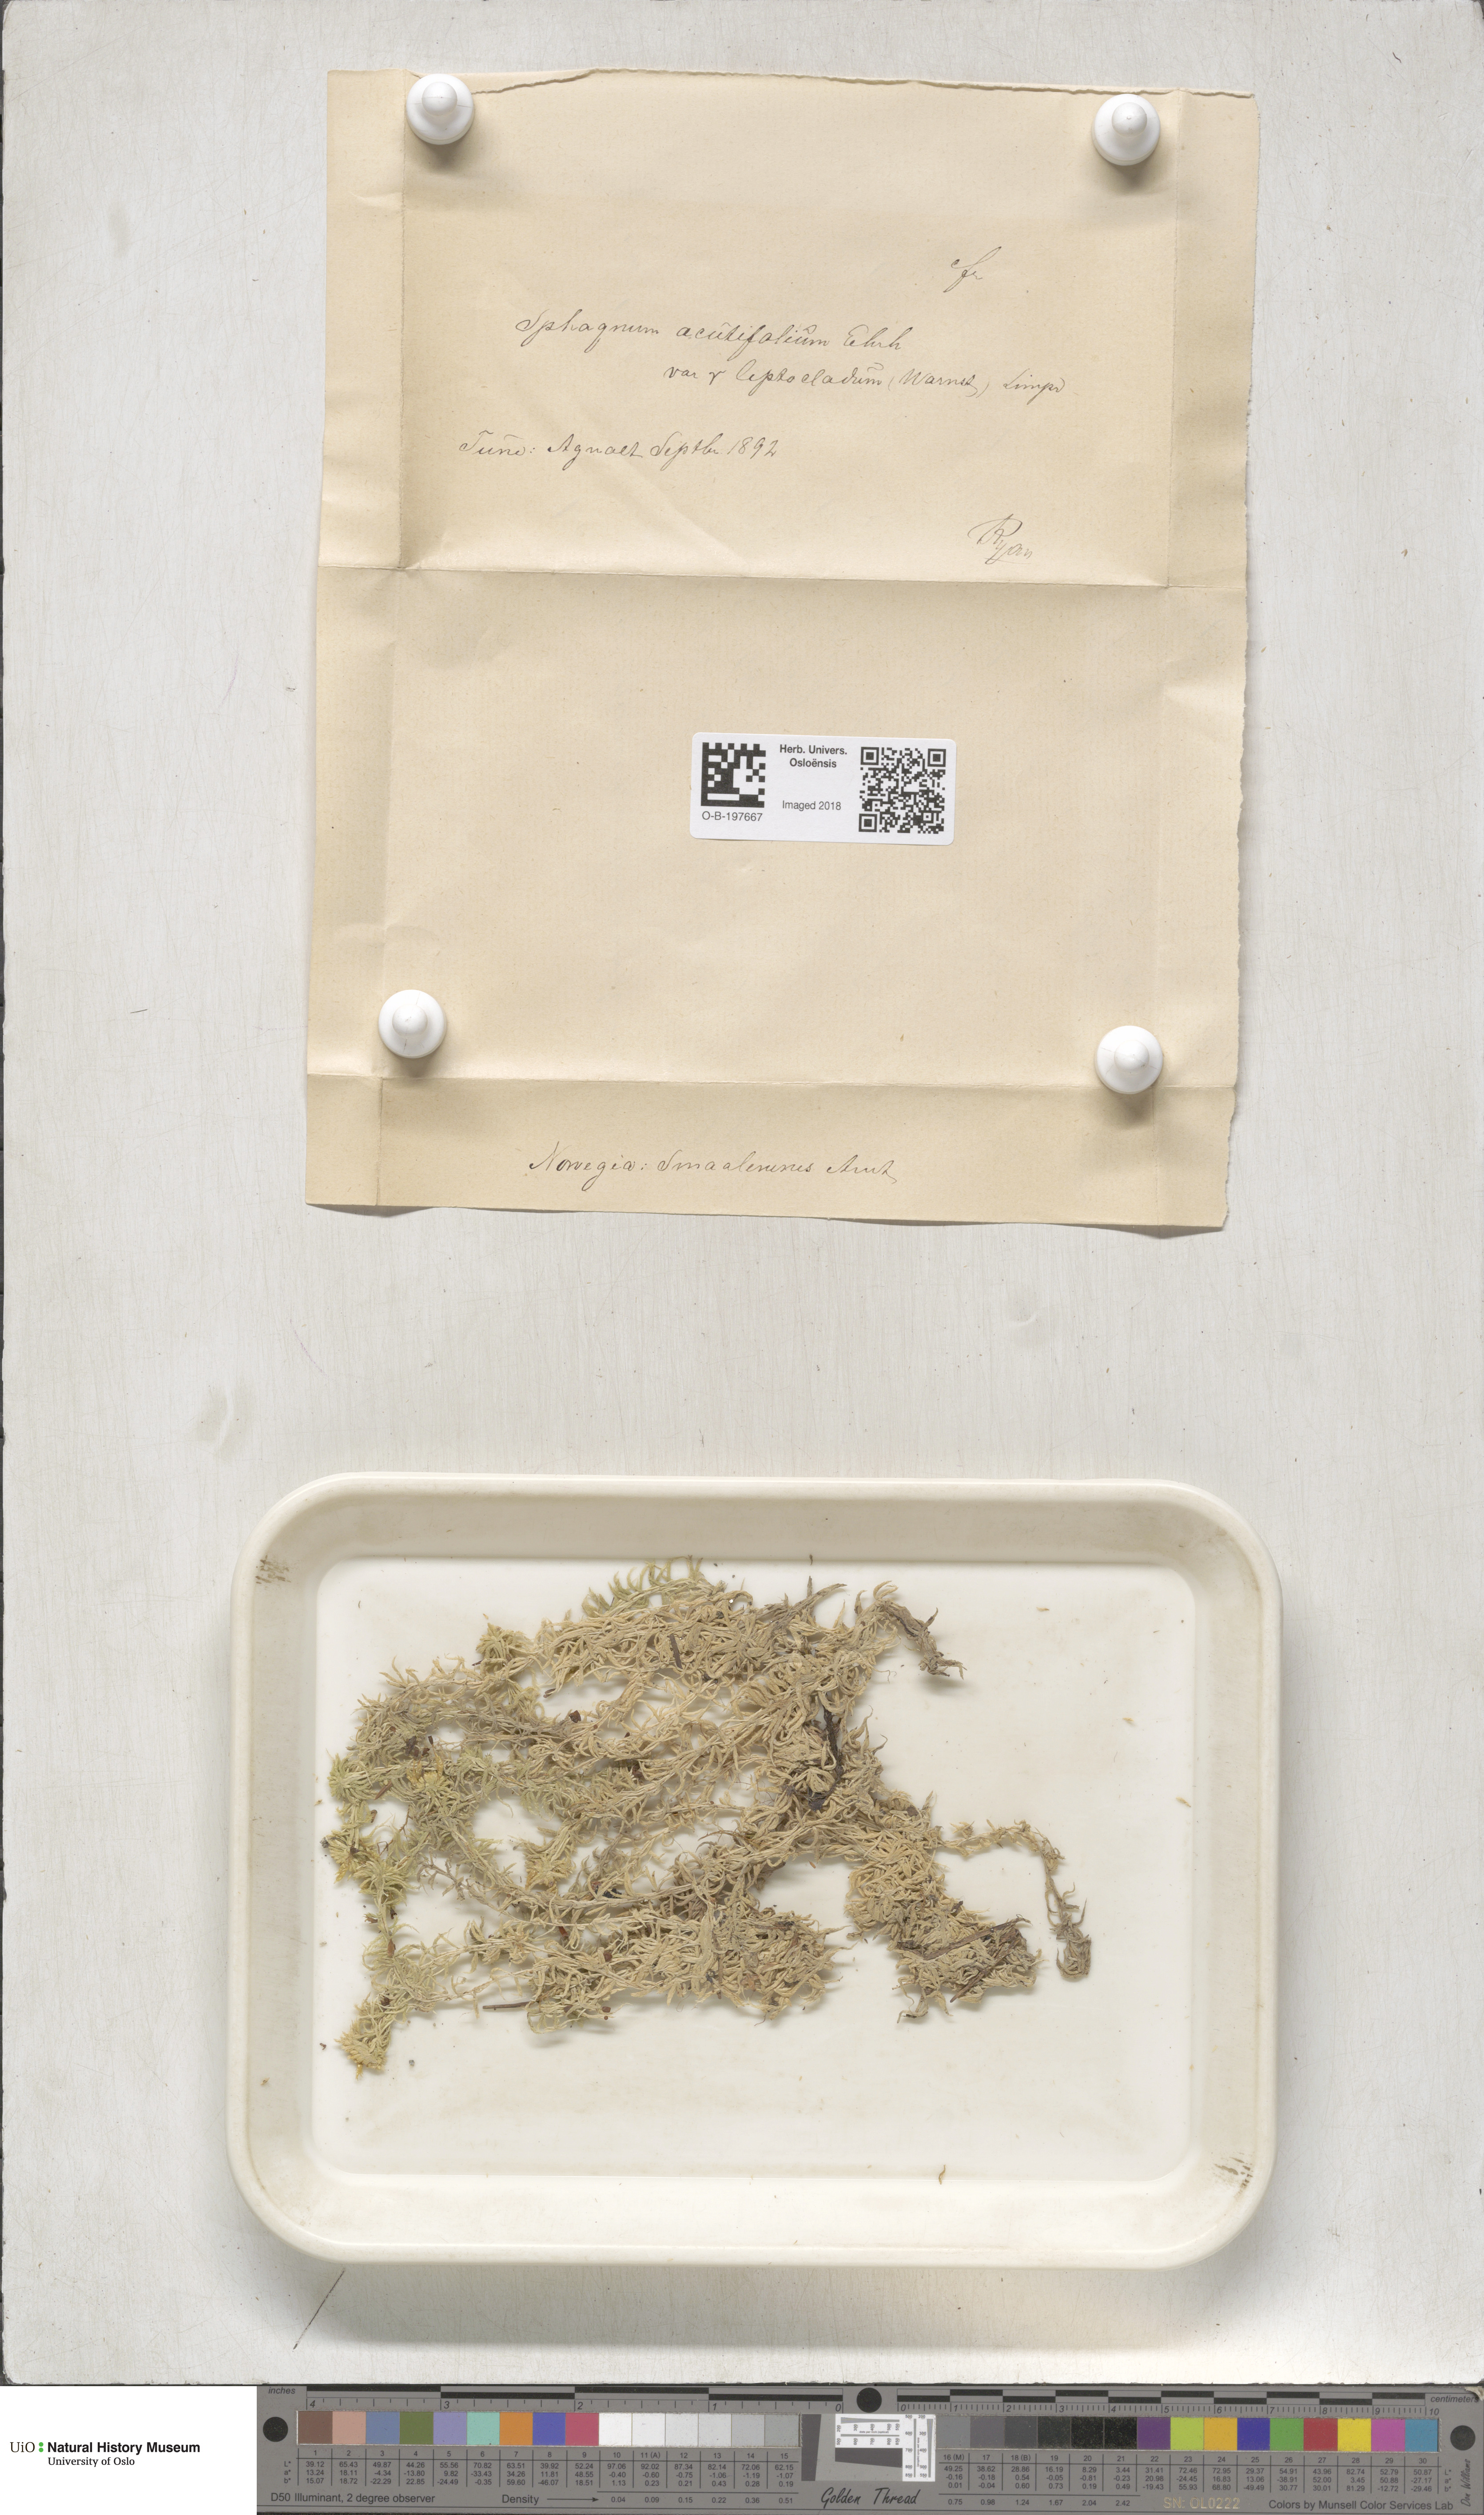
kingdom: Plantae
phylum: Bryophyta
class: Sphagnopsida
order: Sphagnales
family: Sphagnaceae
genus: Sphagnum
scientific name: Sphagnum capillifolium
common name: Small red peat moss
